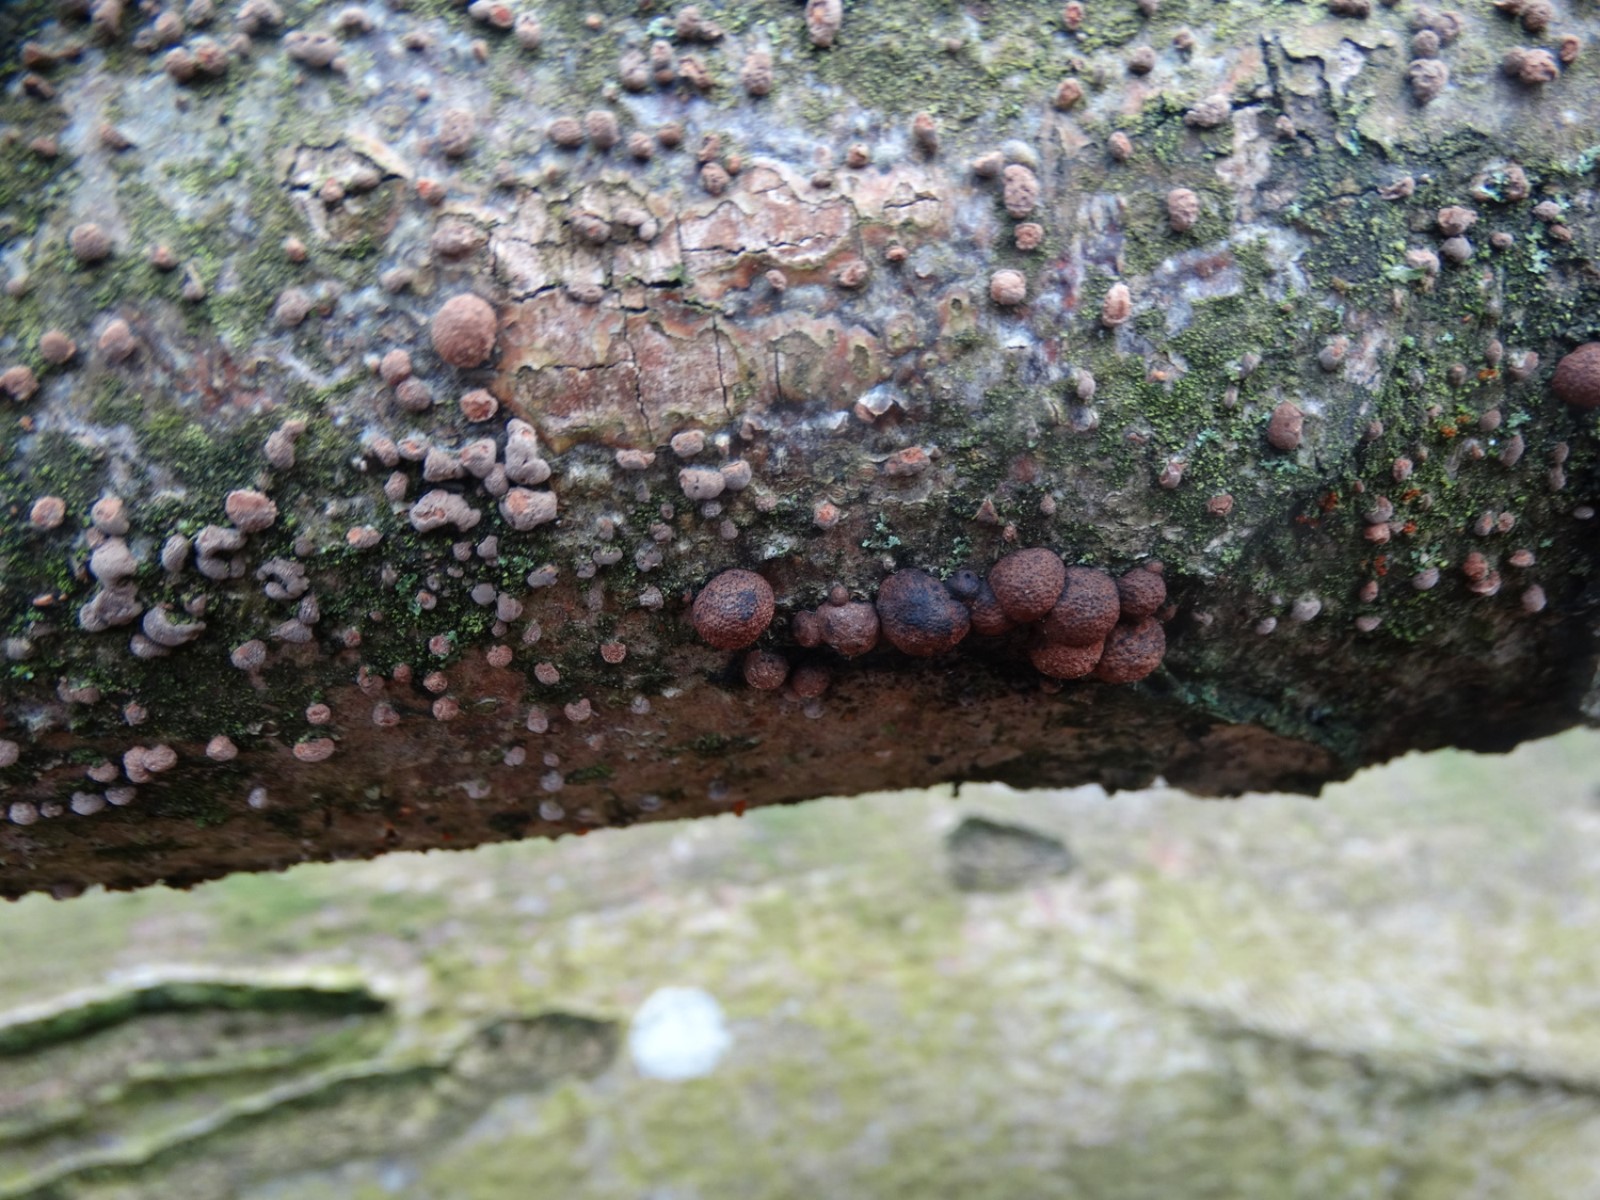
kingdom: Fungi
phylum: Ascomycota
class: Sordariomycetes
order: Xylariales
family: Hypoxylaceae
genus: Hypoxylon
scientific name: Hypoxylon fragiforme
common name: kuljordbær
